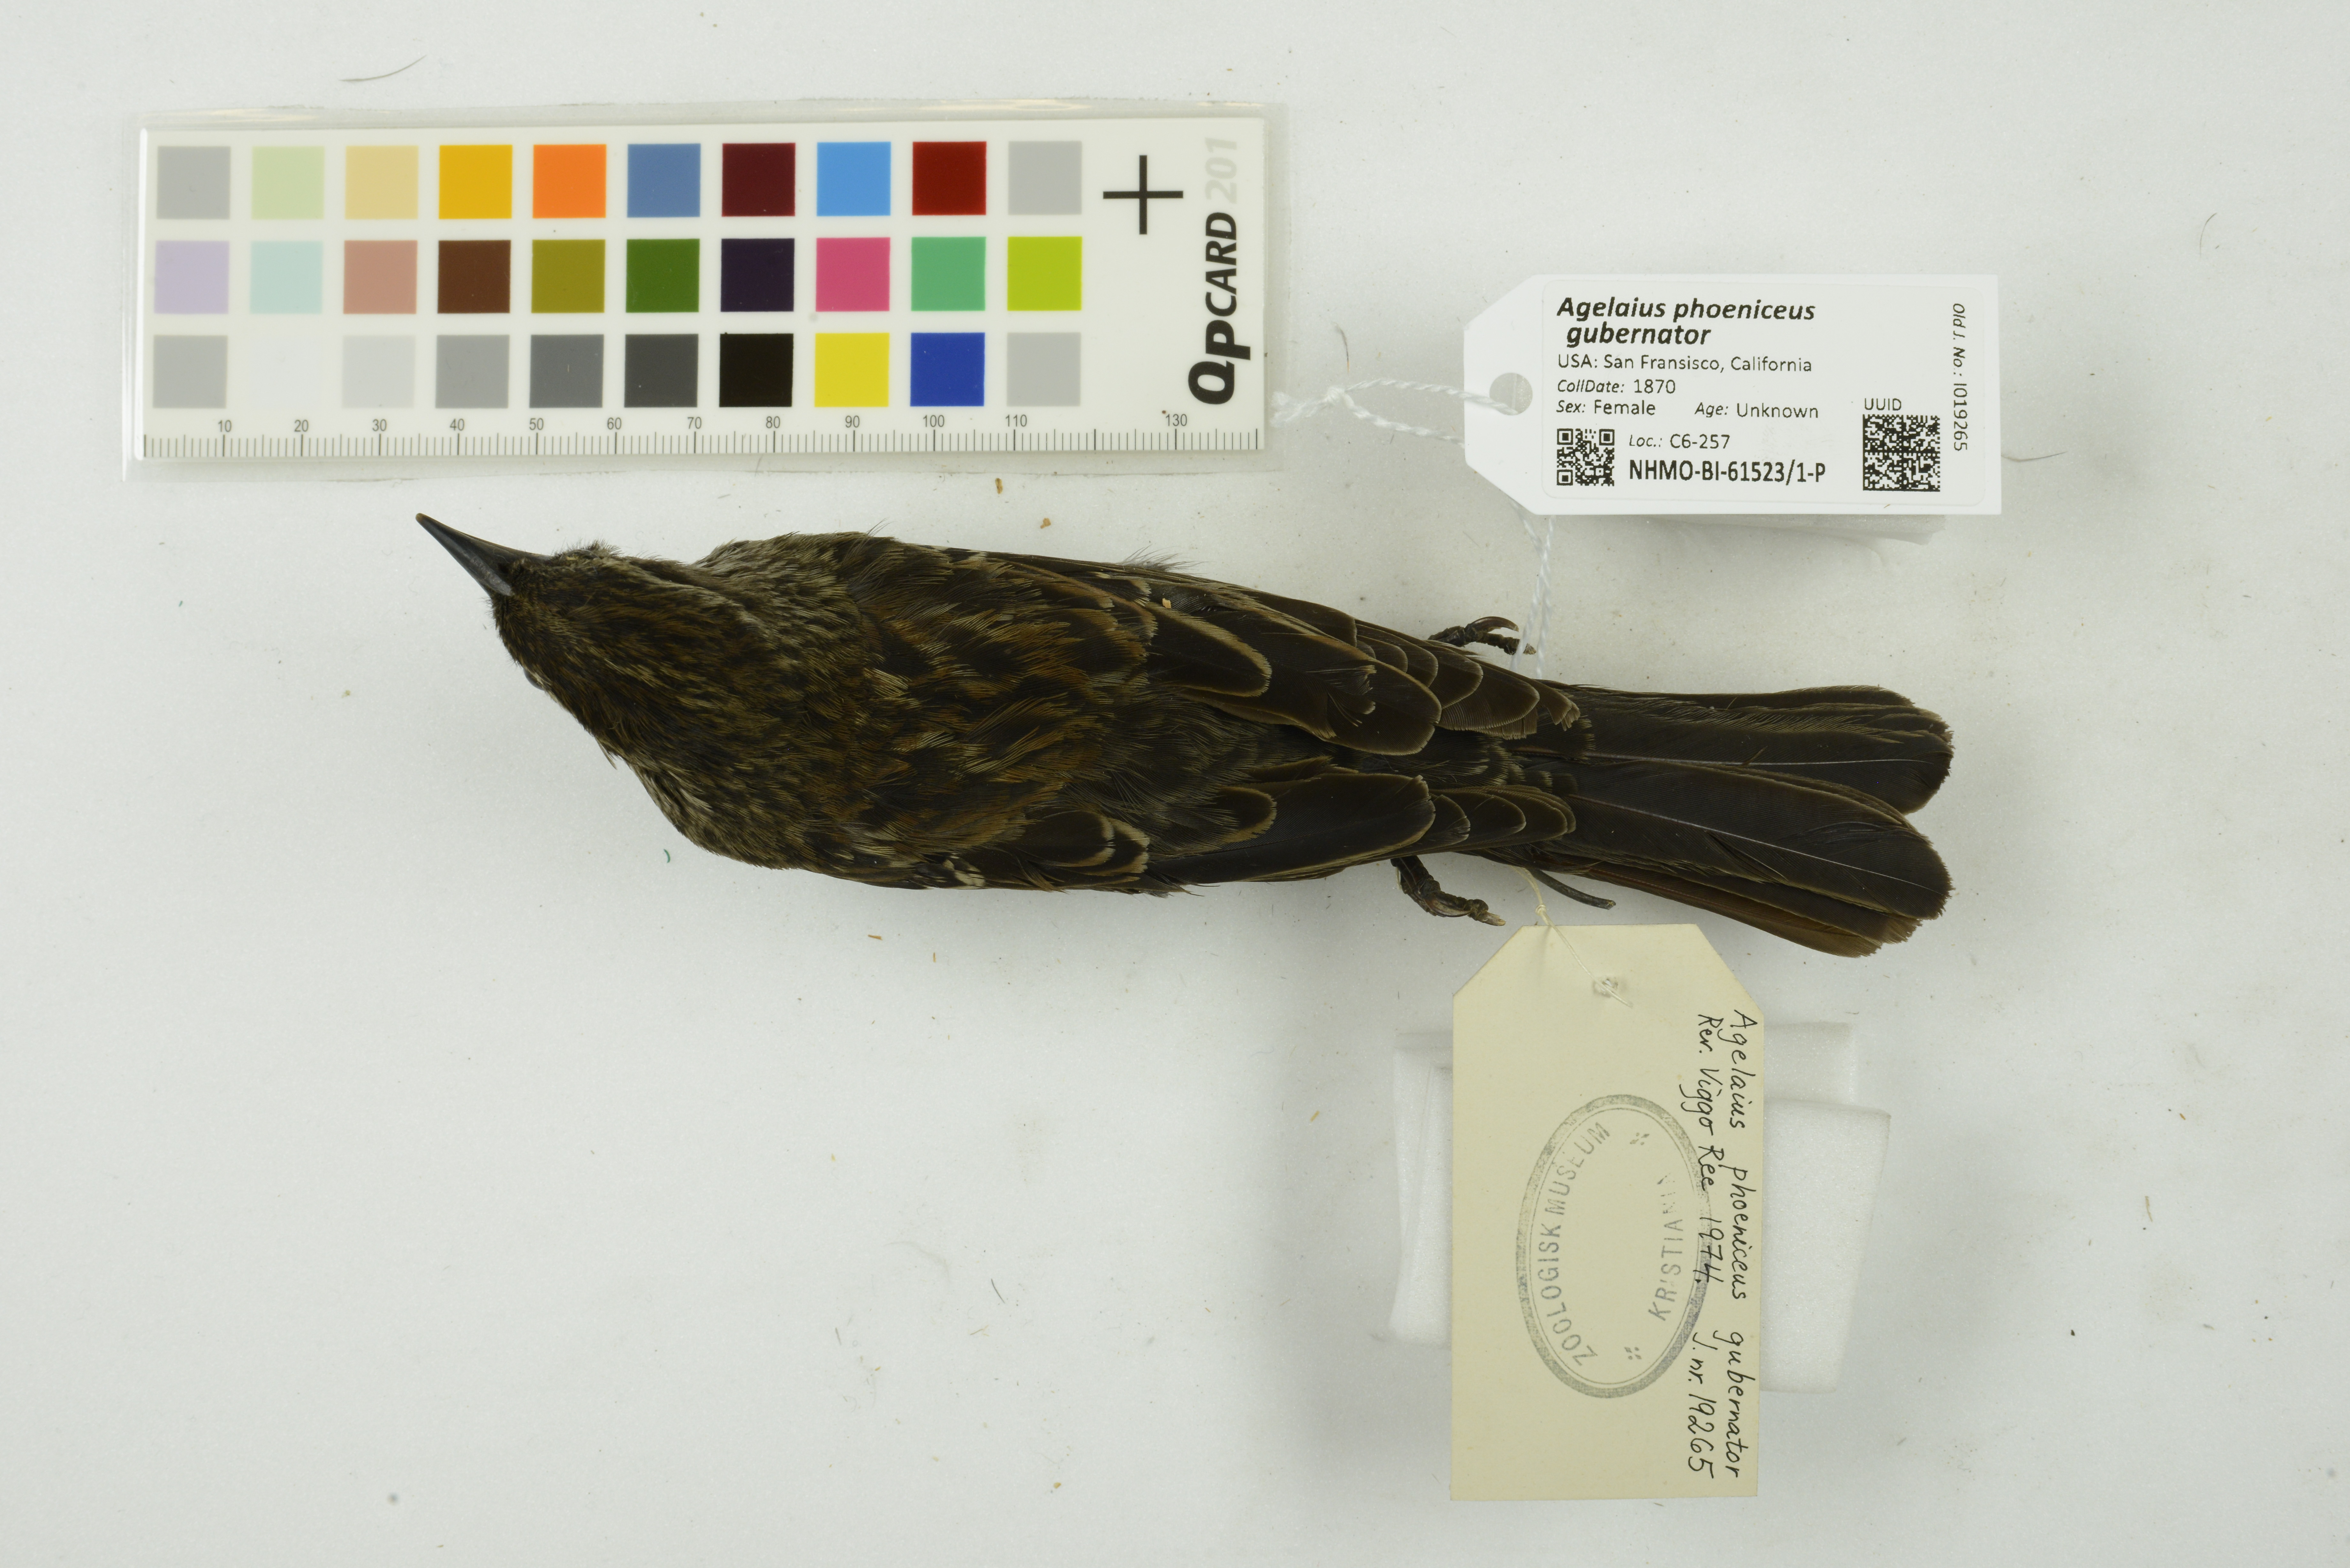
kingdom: Animalia
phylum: Chordata
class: Aves
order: Passeriformes
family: Icteridae
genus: Agelaius
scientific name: Agelaius phoeniceus
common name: Red-winged blackbird
